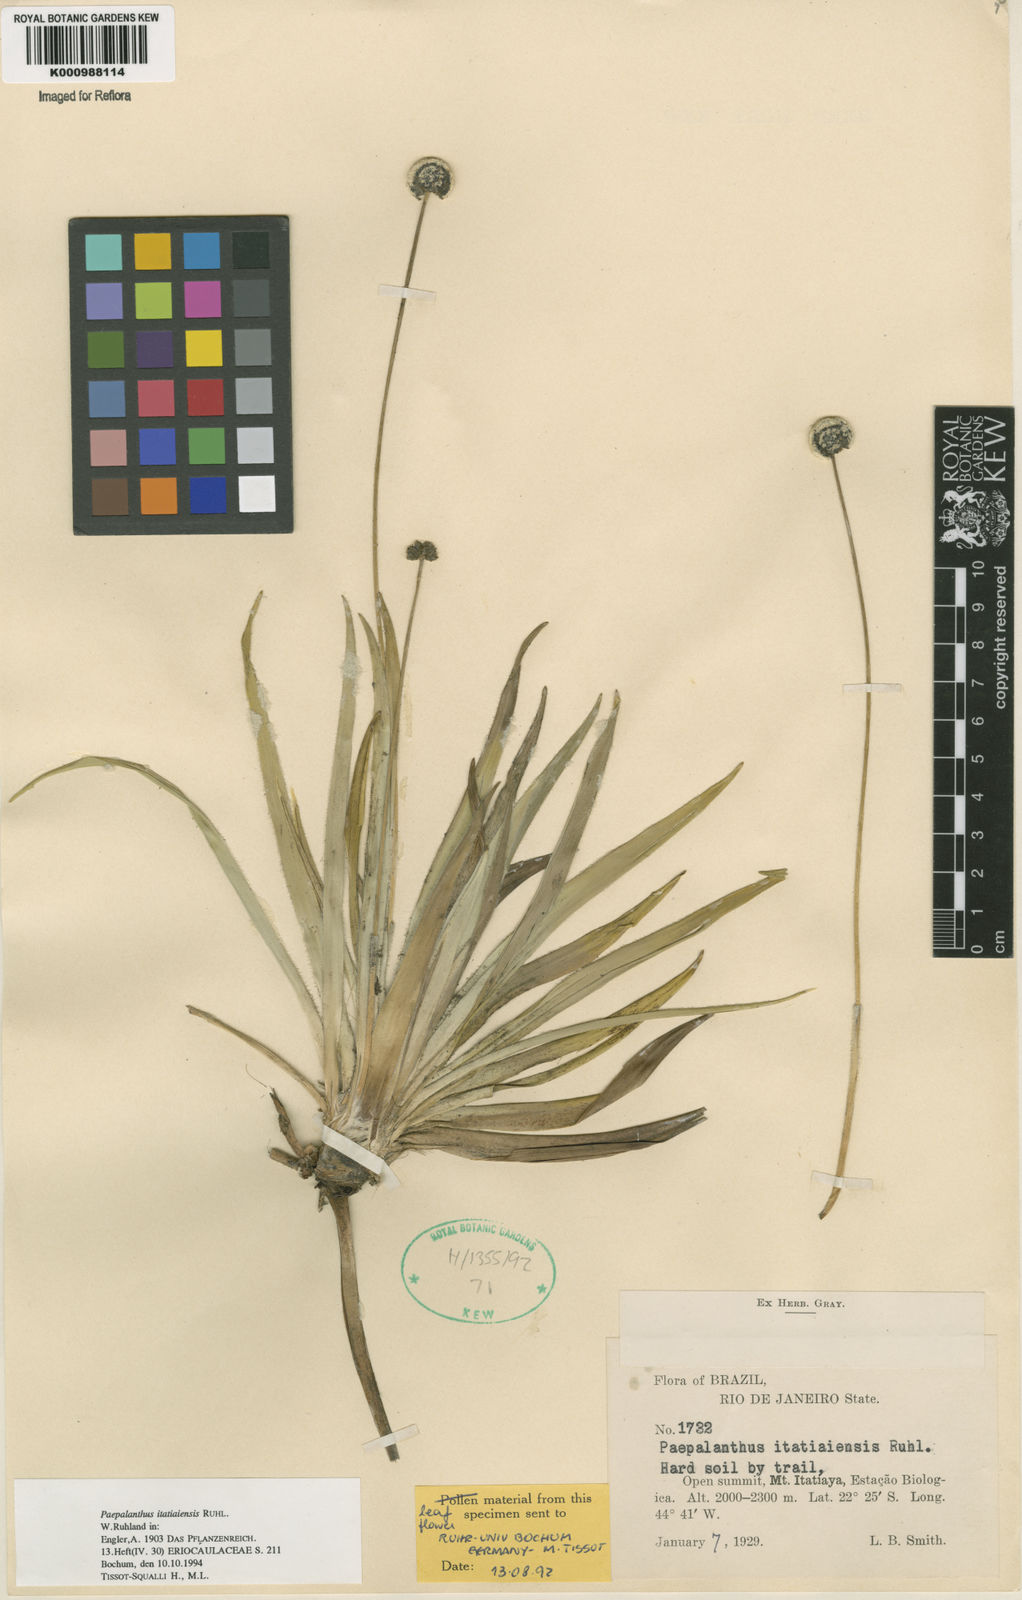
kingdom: Plantae
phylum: Tracheophyta
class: Liliopsida
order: Poales
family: Eriocaulaceae
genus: Paepalanthus
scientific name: Paepalanthus itatiaiensis
